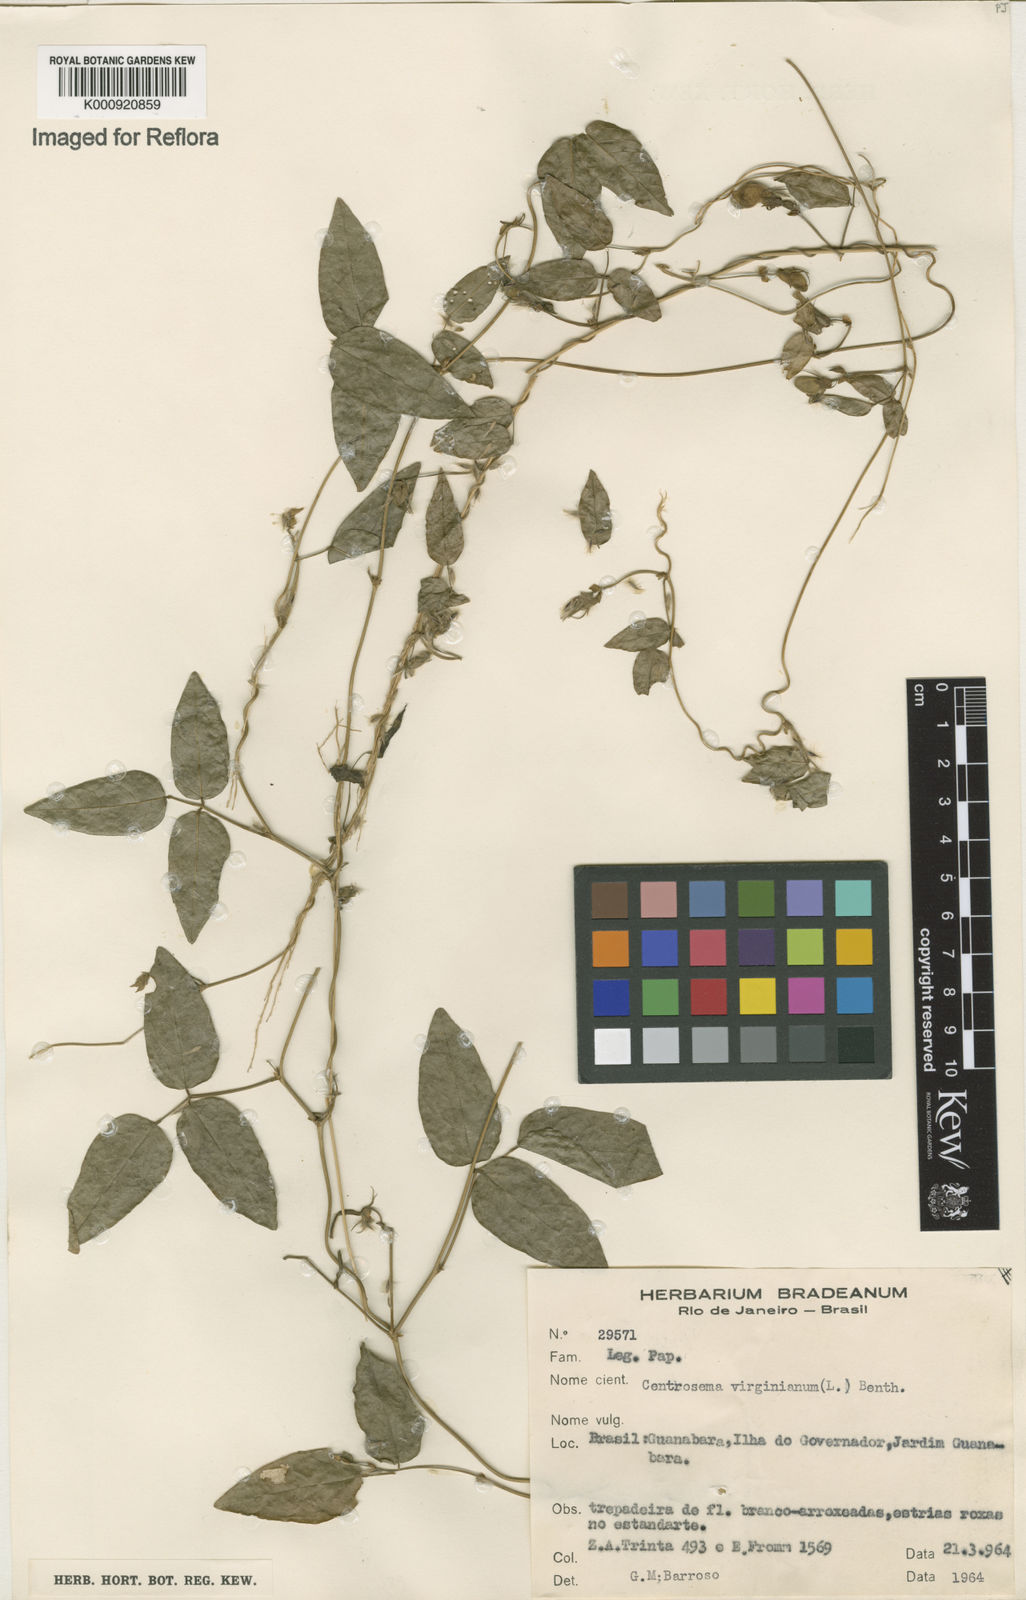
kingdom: Plantae
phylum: Tracheophyta
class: Magnoliopsida
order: Fabales
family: Fabaceae
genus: Centrosema
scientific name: Centrosema virginianum
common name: Butterfly-pea
